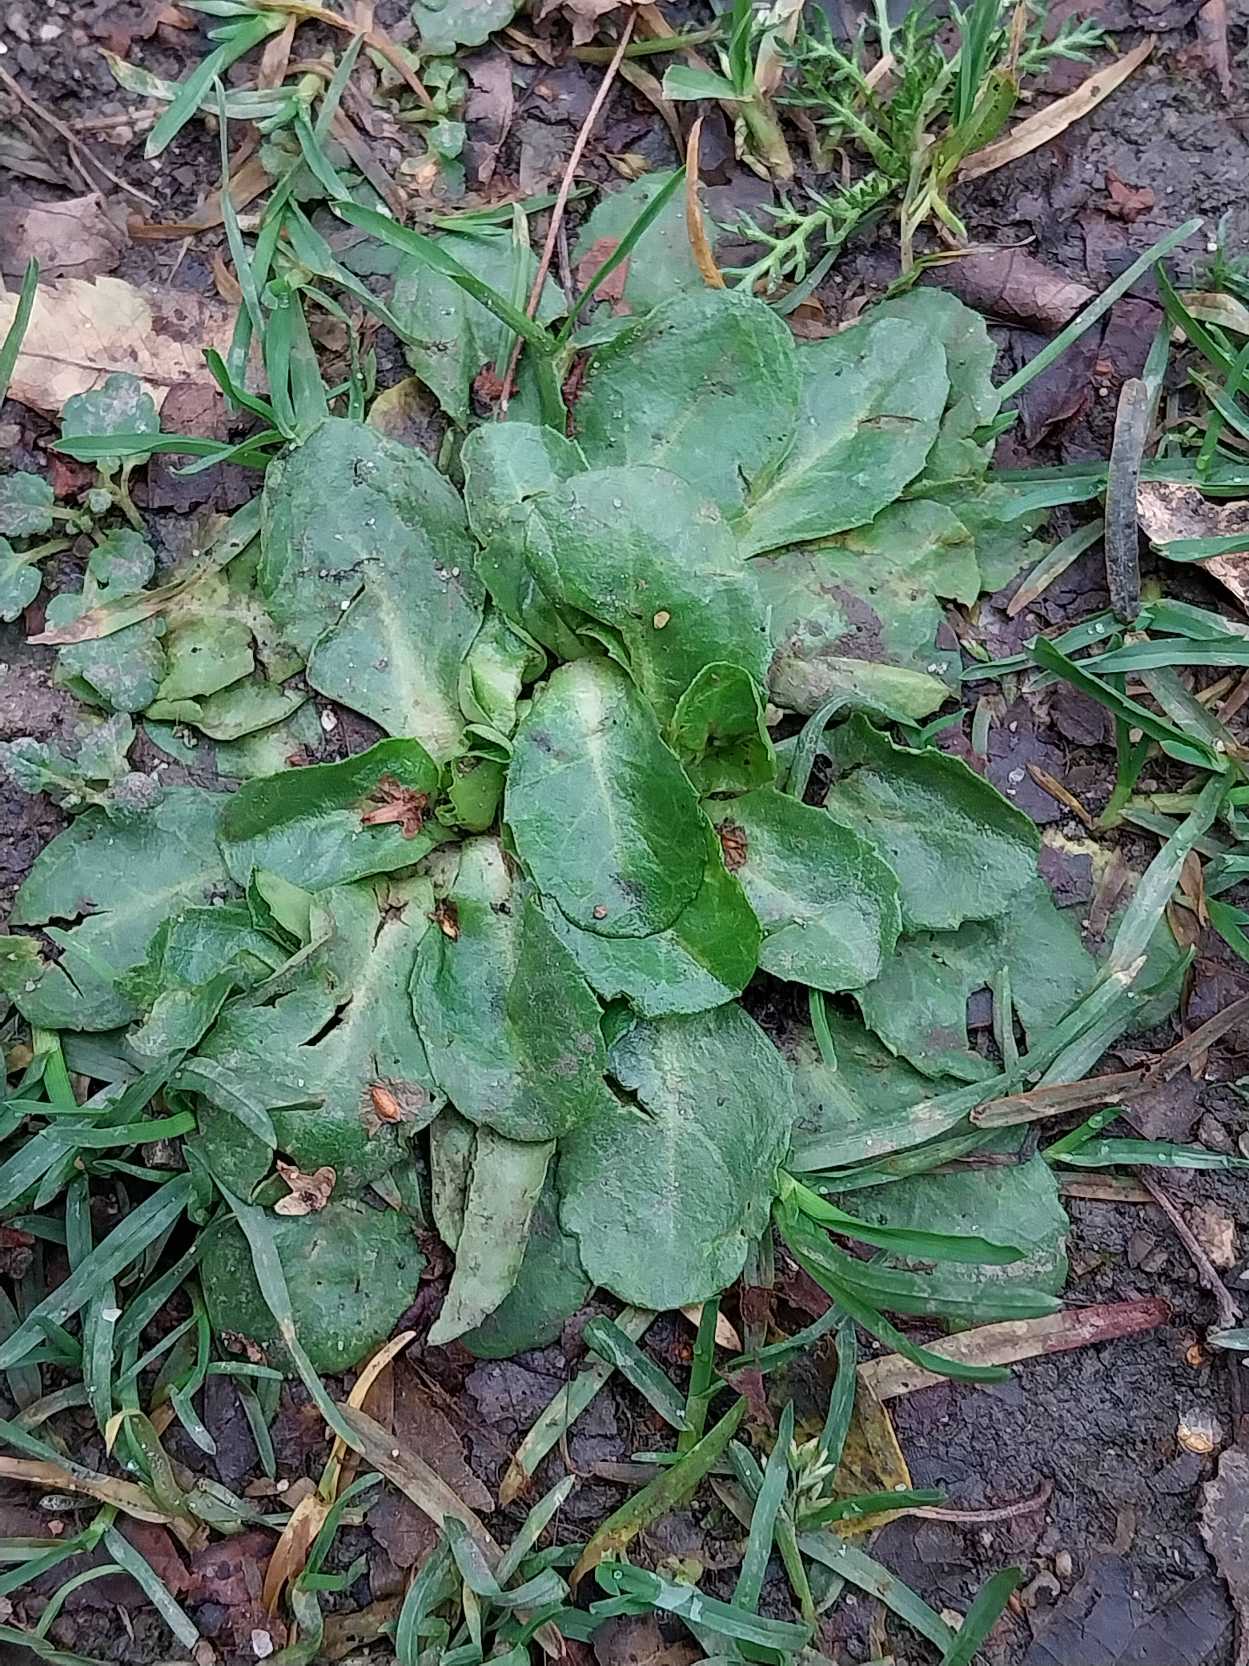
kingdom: Plantae
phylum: Tracheophyta
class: Magnoliopsida
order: Asterales
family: Asteraceae
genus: Bellis
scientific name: Bellis perennis
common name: Tusindfryd
